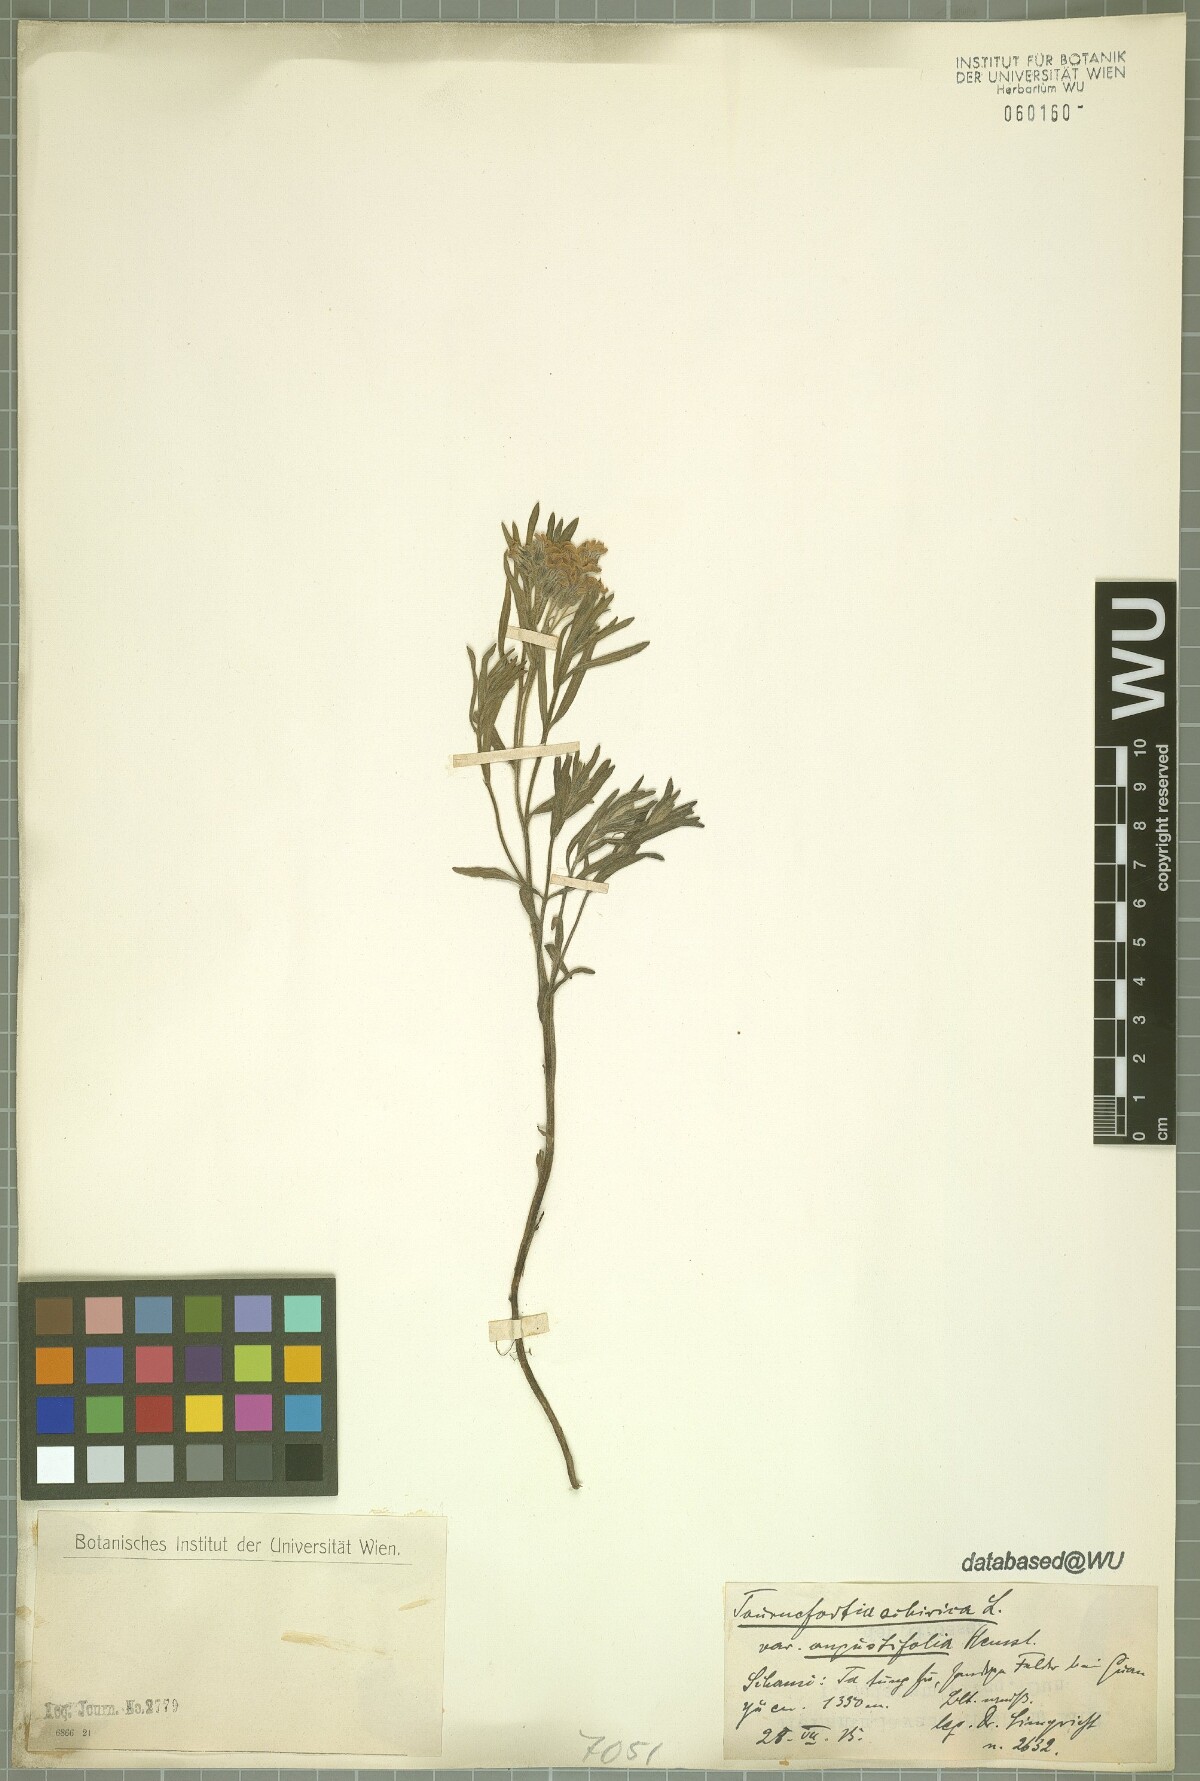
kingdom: Plantae
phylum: Tracheophyta
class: Magnoliopsida
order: Boraginales
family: Heliotropiaceae
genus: Tournefortia
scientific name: Tournefortia sibirica
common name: Siberian sea rosemary
